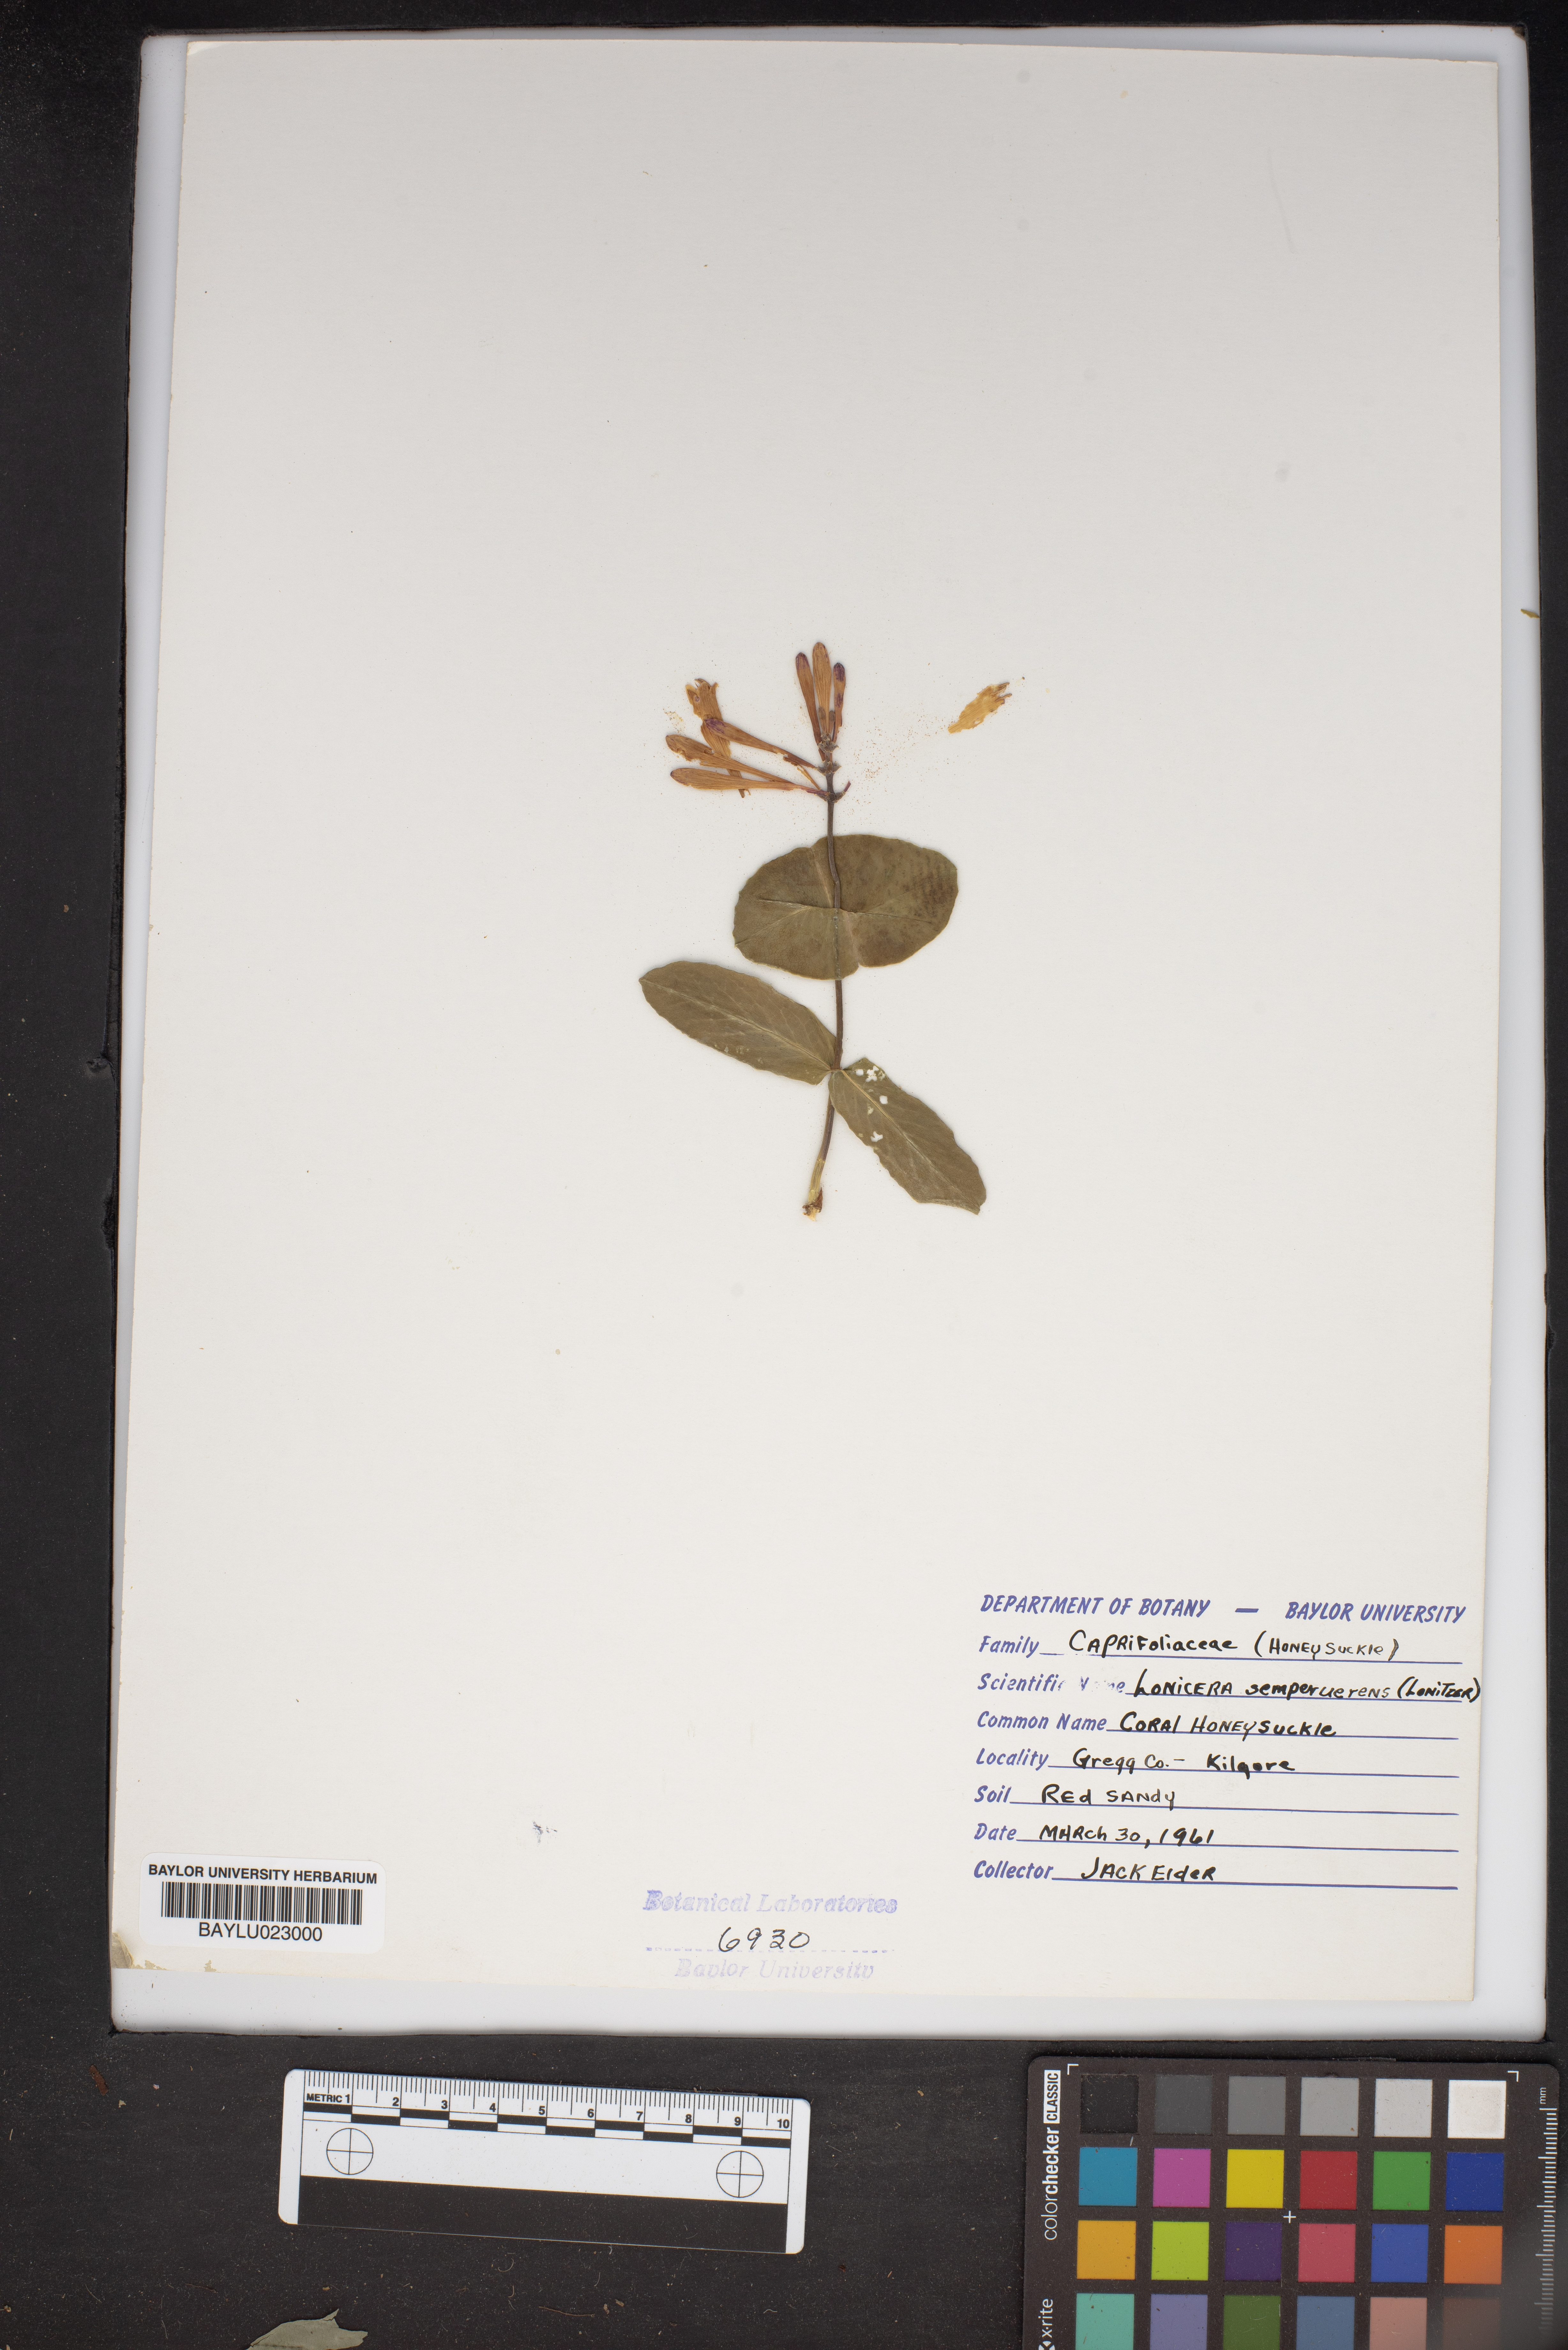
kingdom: Plantae
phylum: Tracheophyta
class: Magnoliopsida
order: Dipsacales
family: Caprifoliaceae
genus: Lonicera
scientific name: Lonicera sempervirens
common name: Coral honeysuckle
